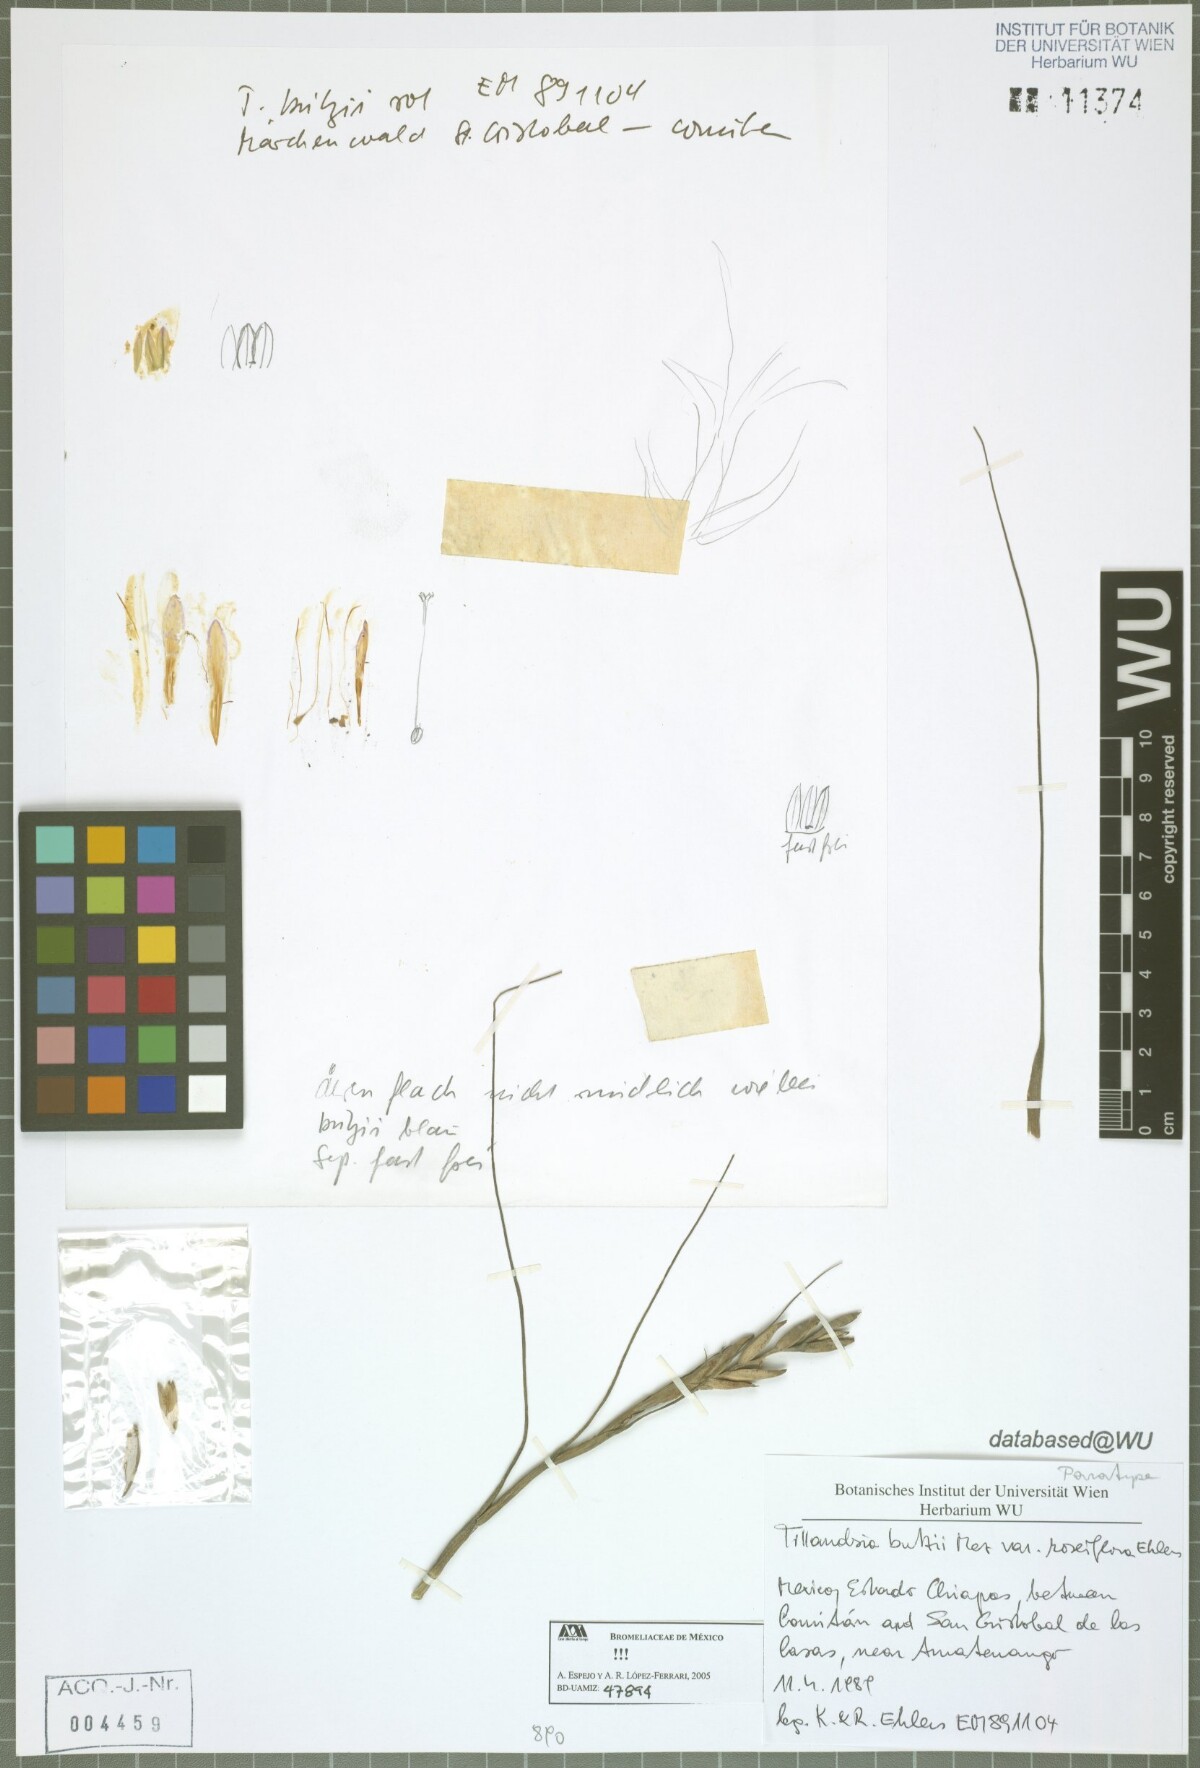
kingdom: Plantae
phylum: Tracheophyta
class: Liliopsida
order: Poales
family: Bromeliaceae
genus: Tillandsia
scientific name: Tillandsia butzii
